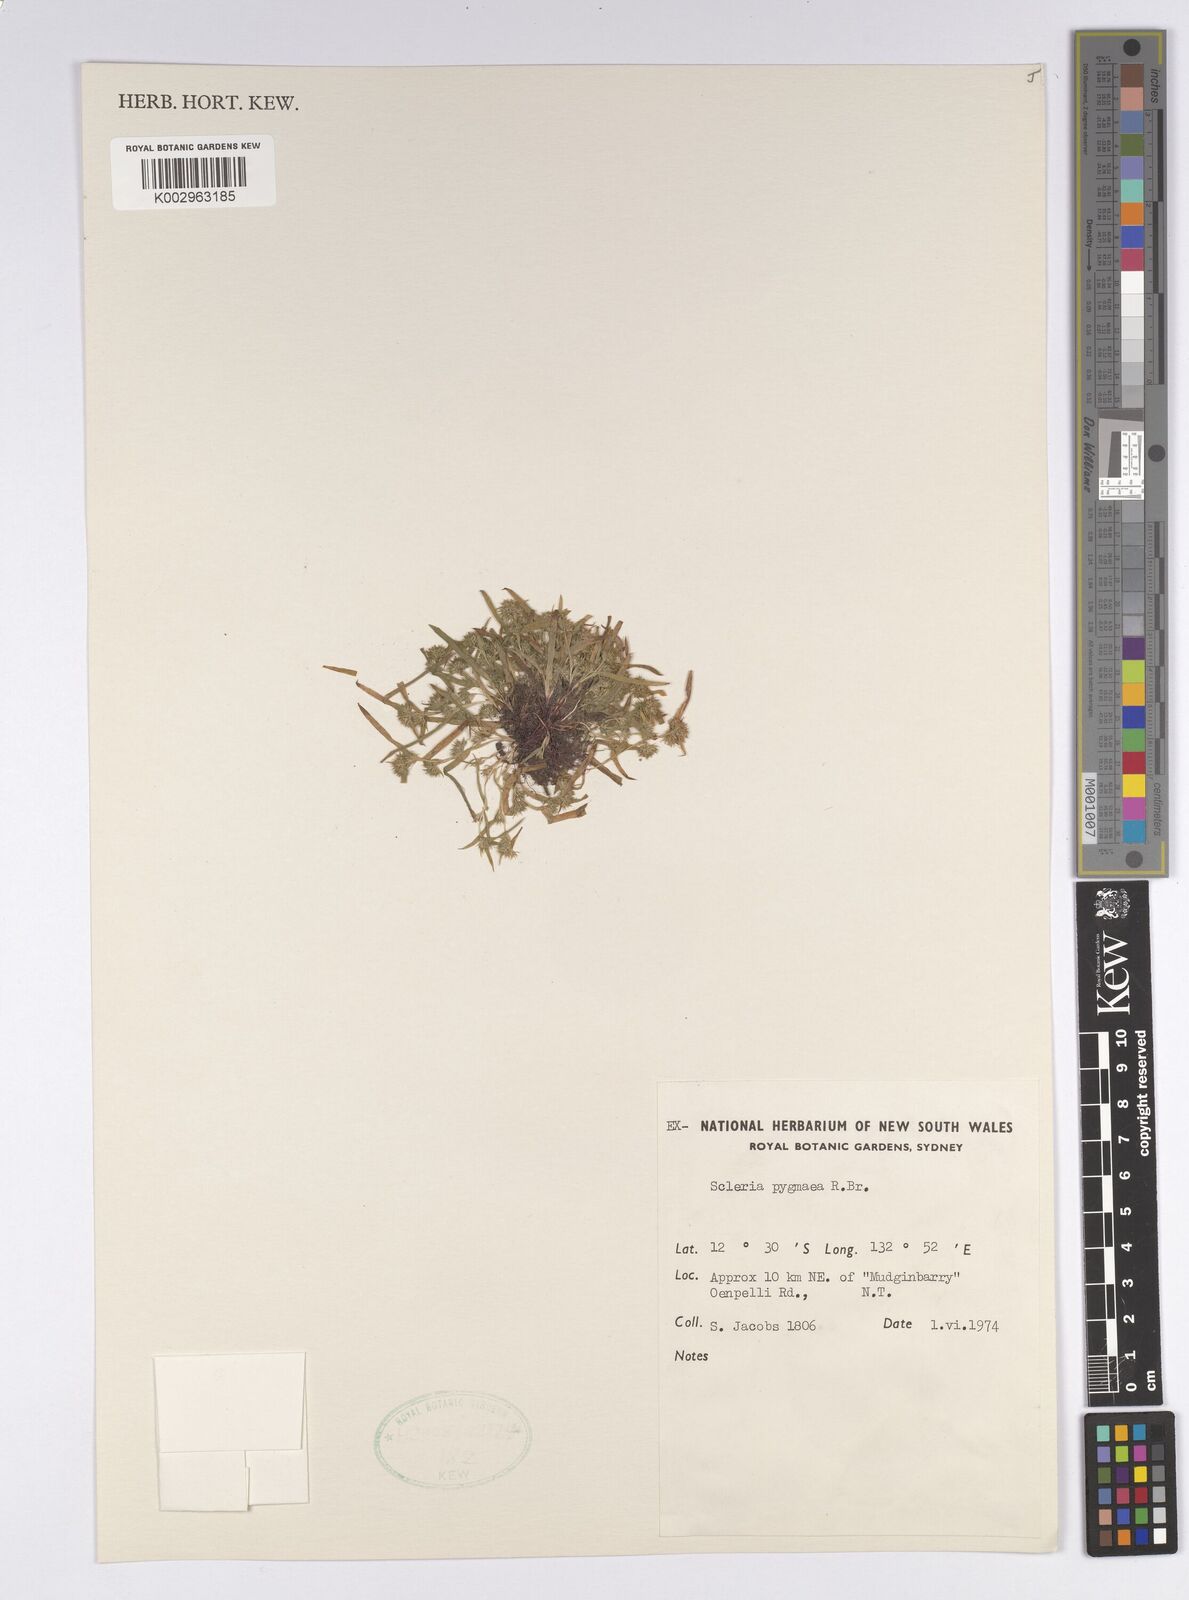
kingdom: Plantae
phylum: Tracheophyta
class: Liliopsida
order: Poales
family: Cyperaceae
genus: Diplacrum
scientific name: Diplacrum pygmaeum
